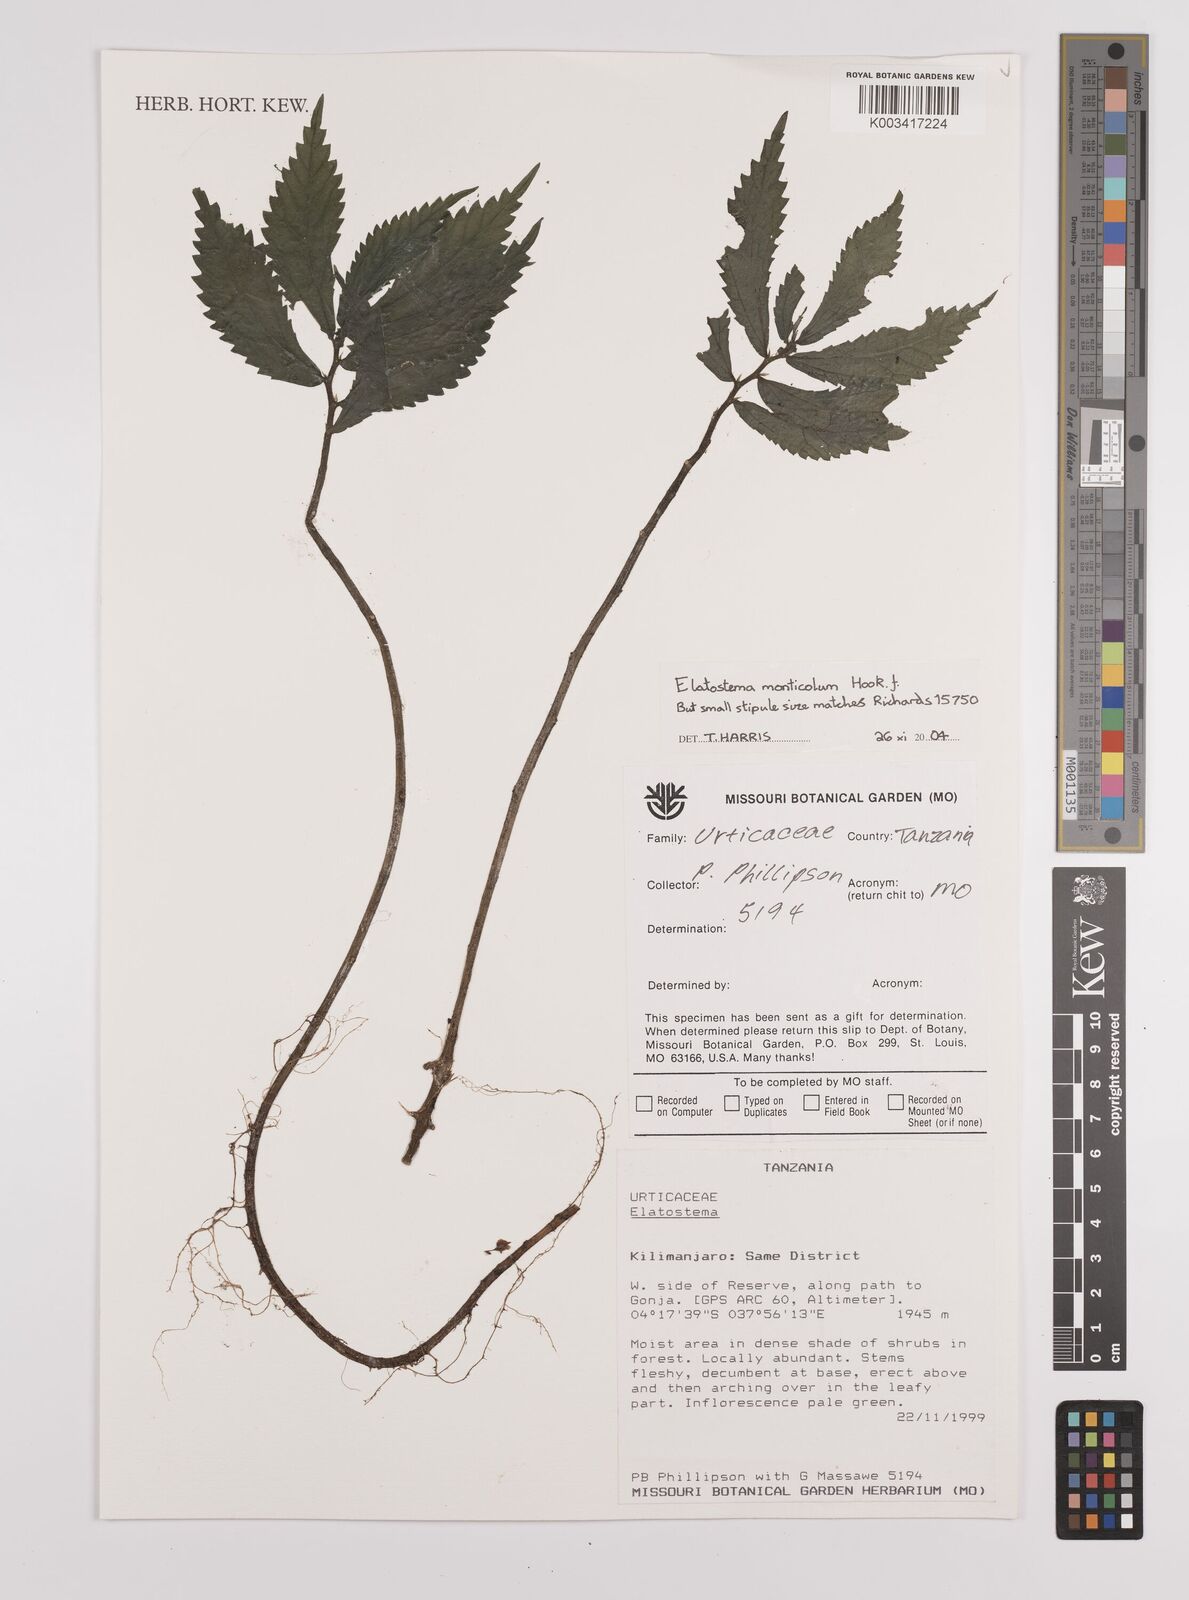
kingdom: Plantae
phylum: Tracheophyta
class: Magnoliopsida
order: Rosales
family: Urticaceae
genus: Elatostema
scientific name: Elatostema monticola
